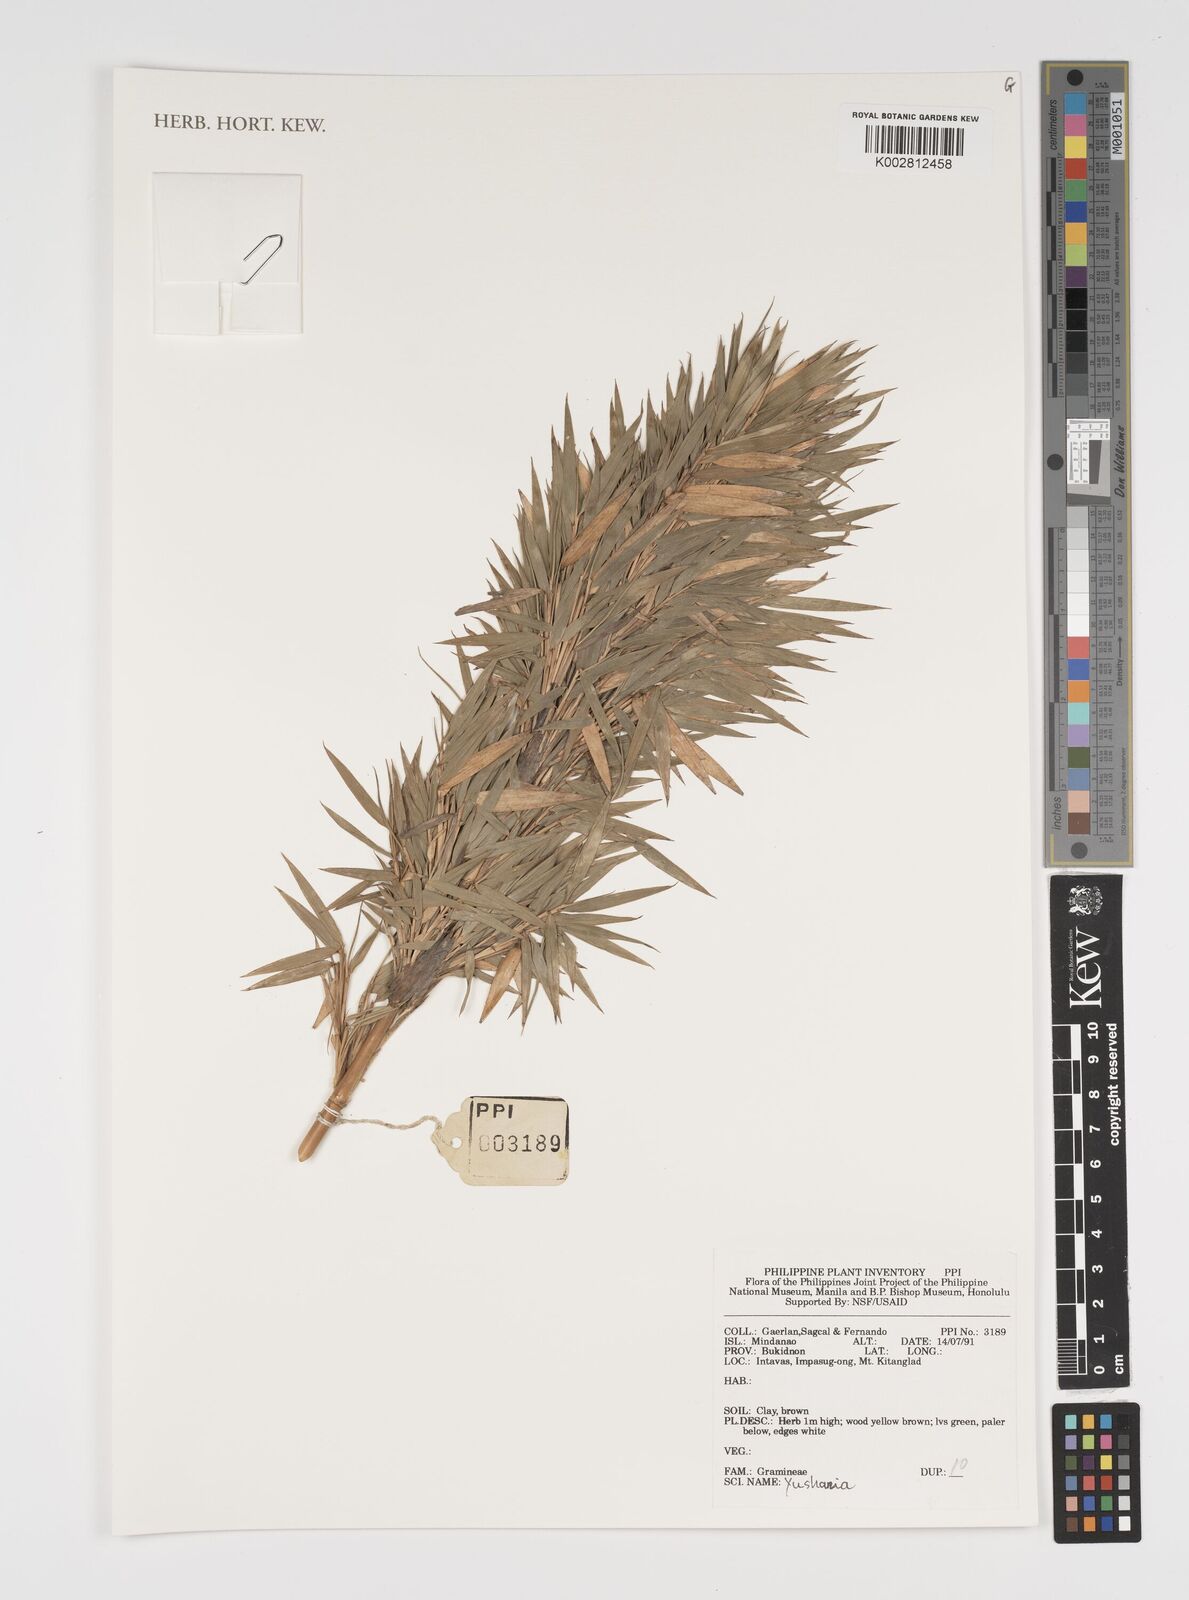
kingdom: Plantae
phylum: Tracheophyta
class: Liliopsida
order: Poales
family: Poaceae
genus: Yushania
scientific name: Yushania
